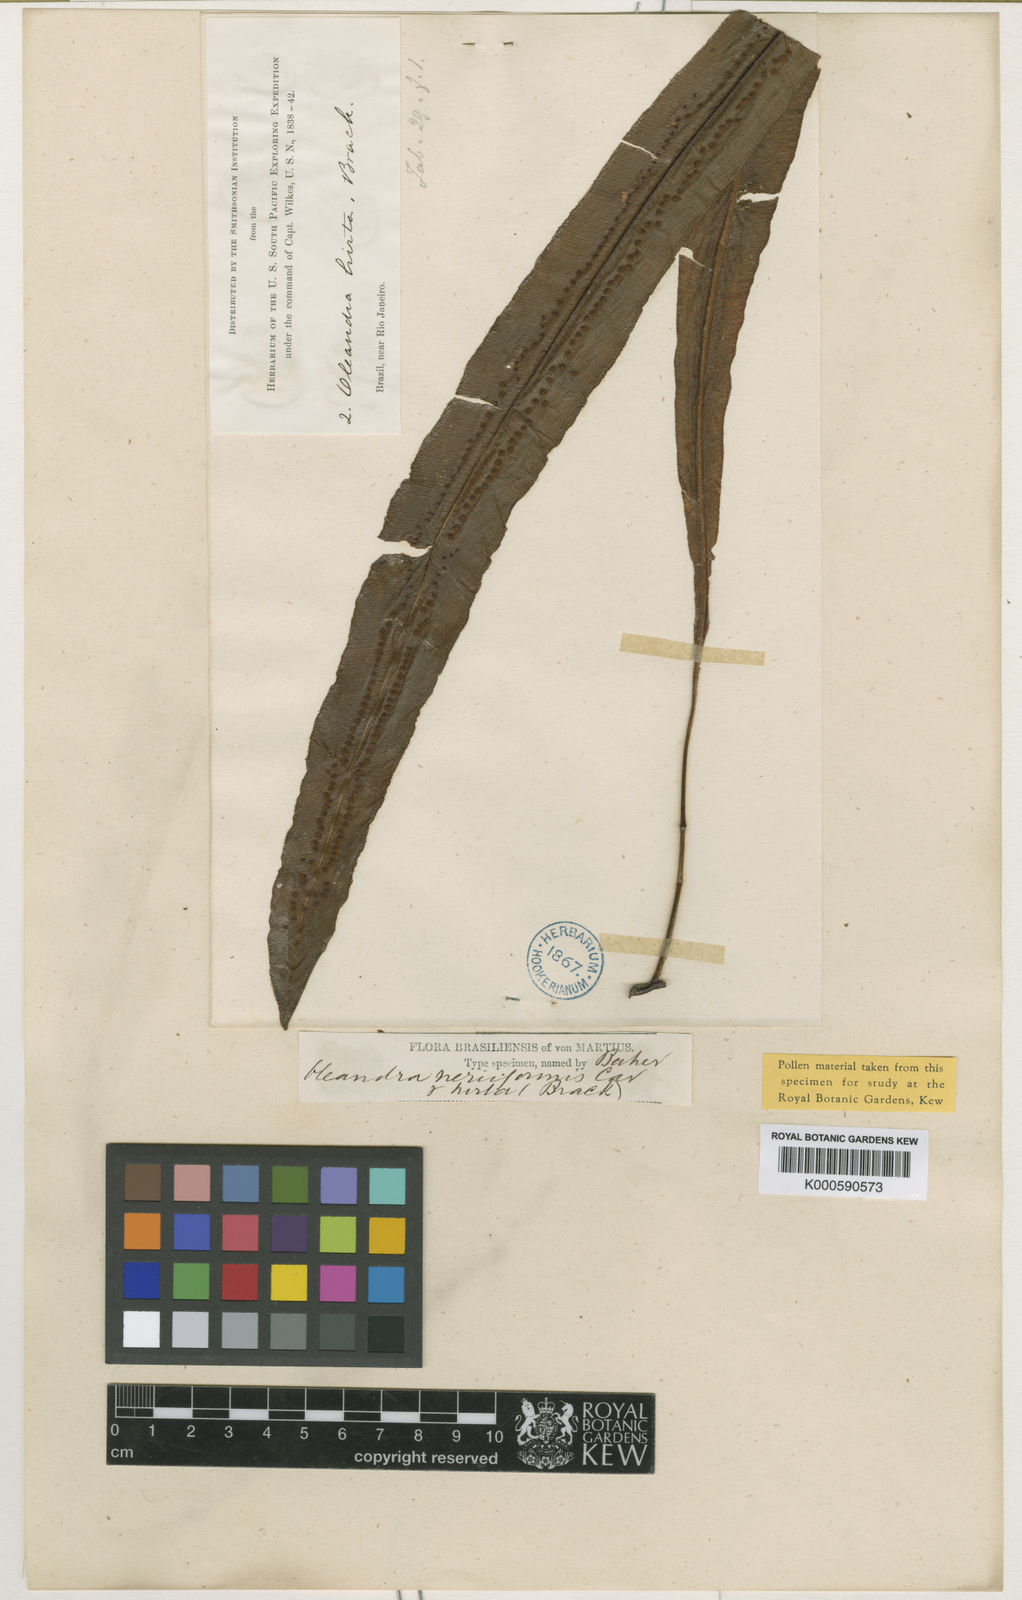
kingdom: Plantae
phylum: Tracheophyta
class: Polypodiopsida
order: Polypodiales
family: Oleandraceae
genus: Oleandra
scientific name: Oleandra hirta
